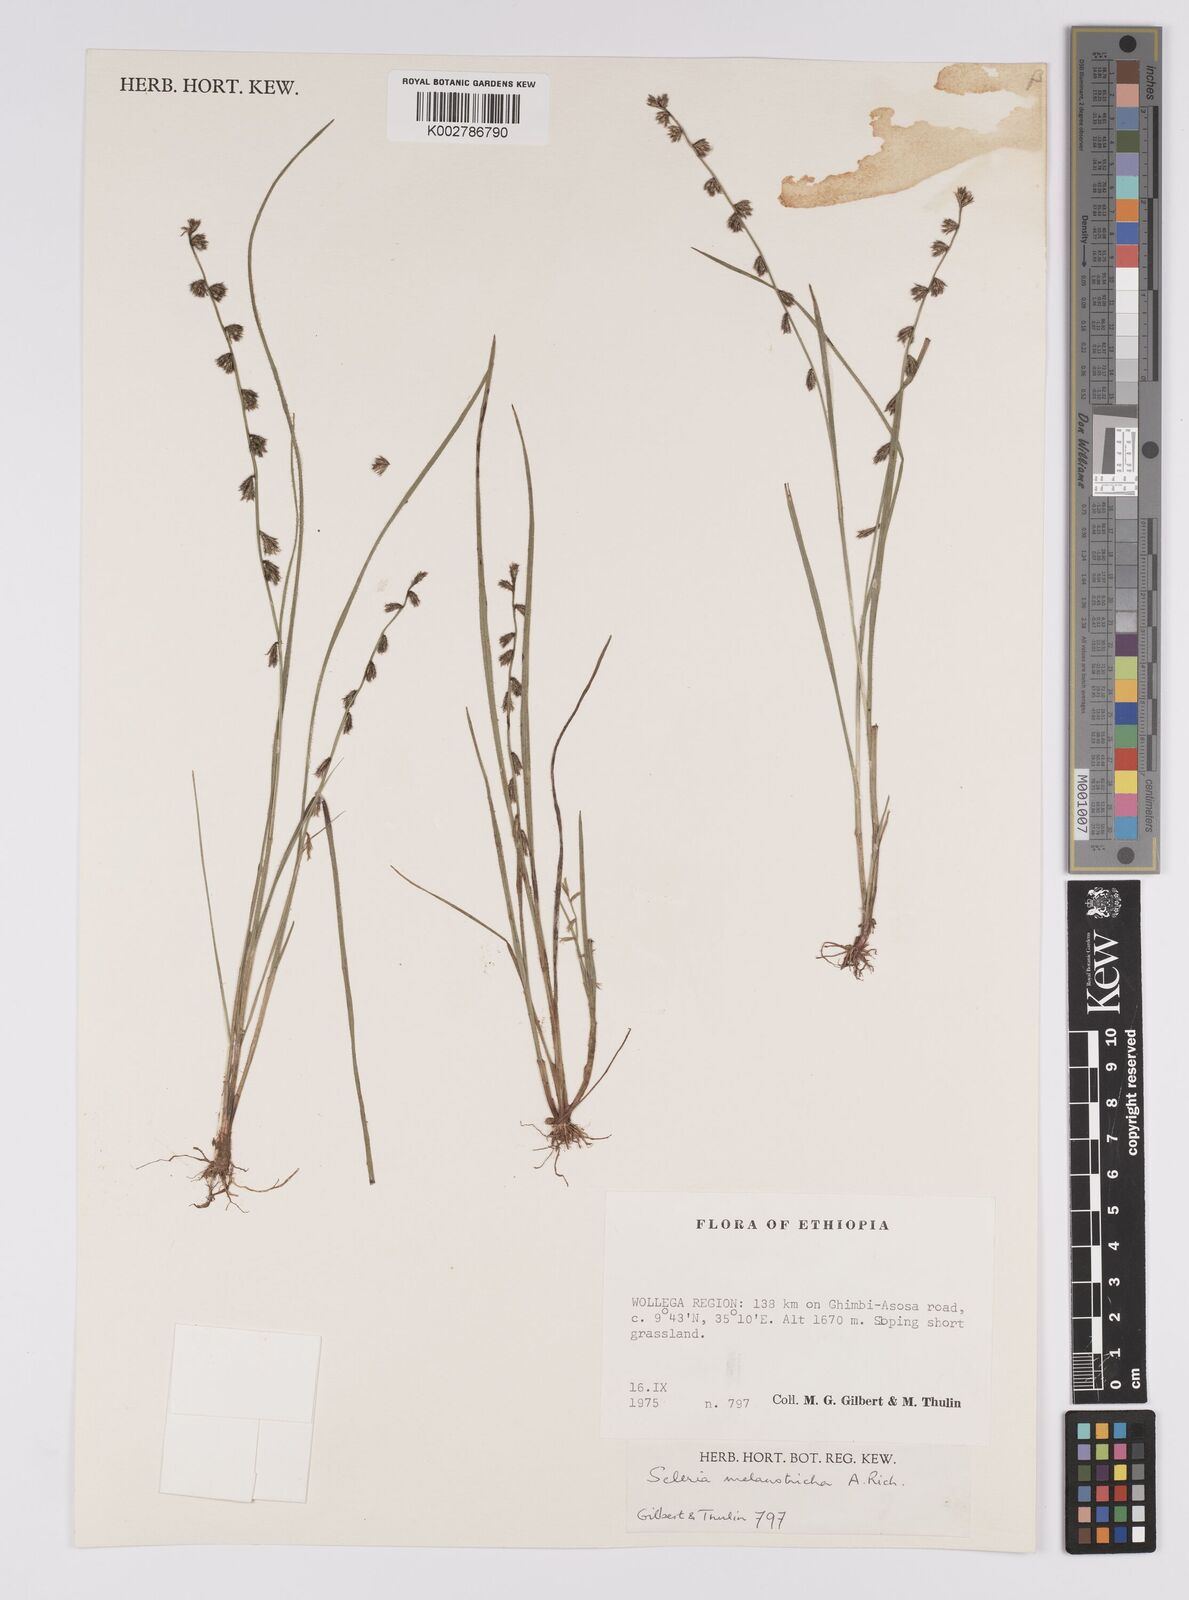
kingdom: Plantae
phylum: Tracheophyta
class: Liliopsida
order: Poales
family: Cyperaceae
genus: Scleria
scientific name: Scleria melanotricha
